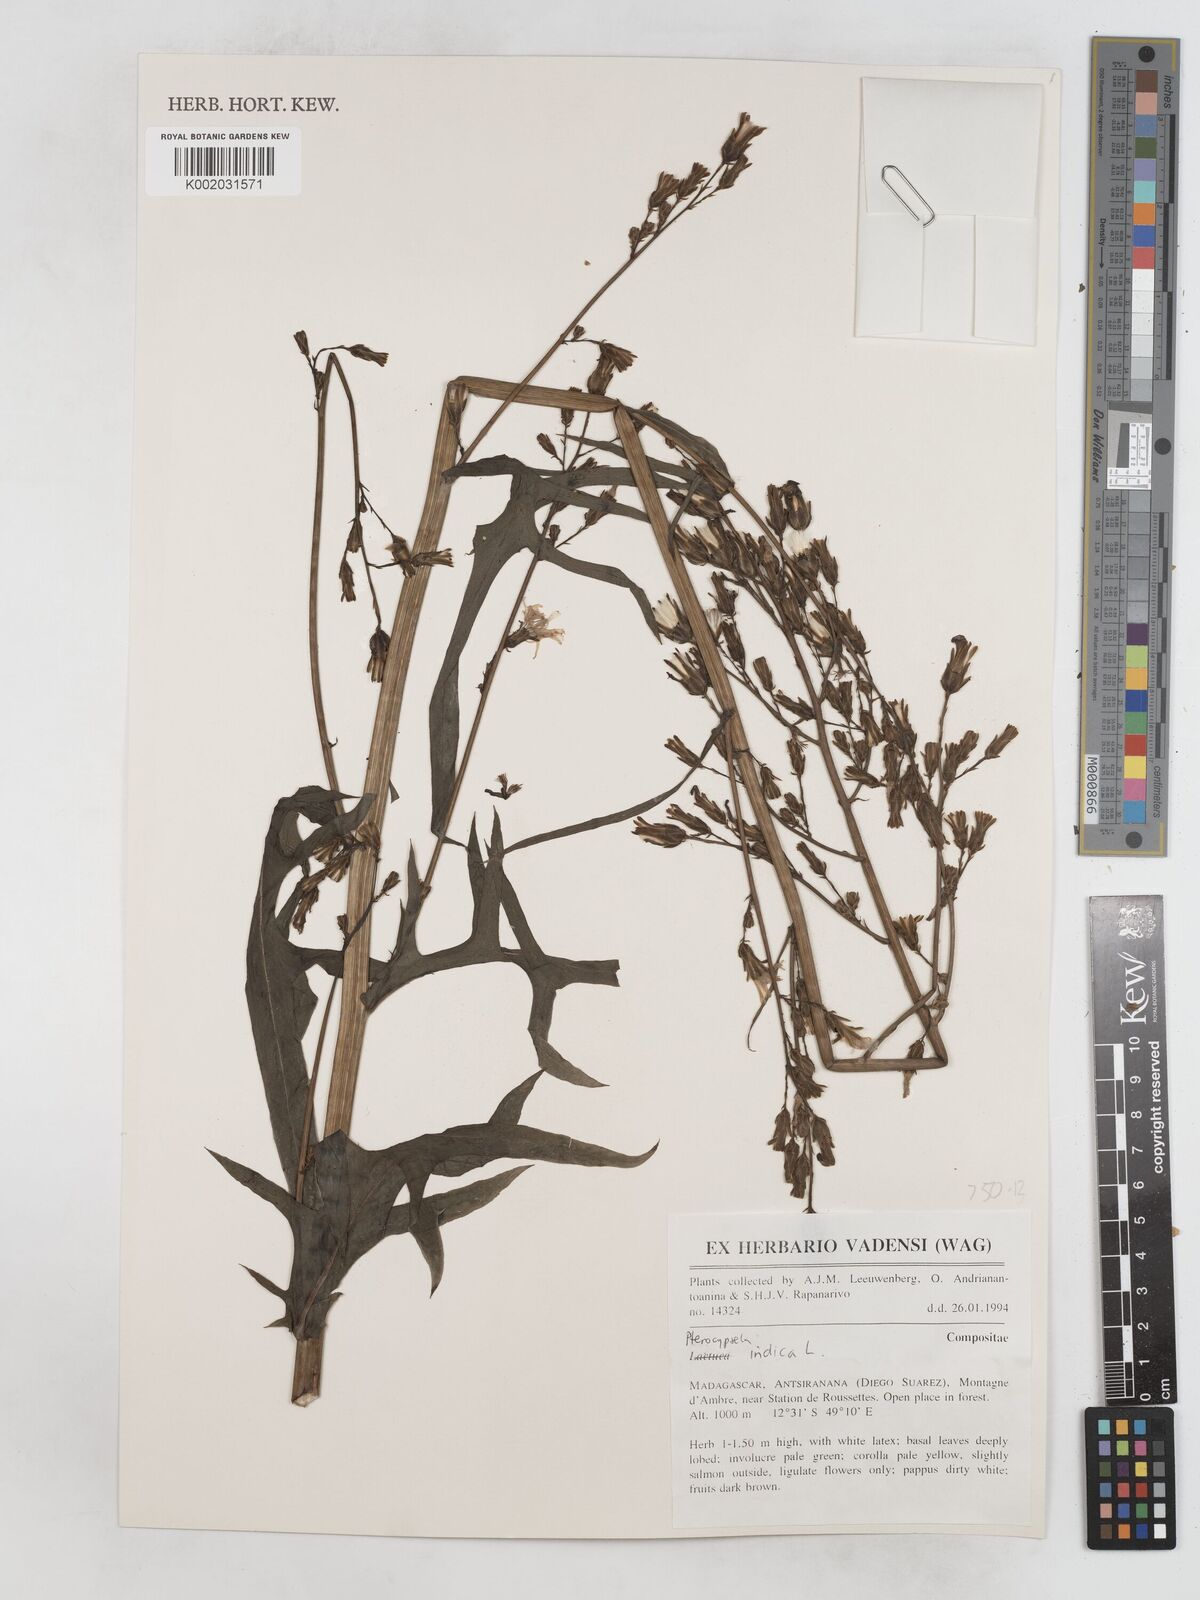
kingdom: Plantae
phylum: Tracheophyta
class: Magnoliopsida
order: Asterales
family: Asteraceae
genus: Lactuca
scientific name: Lactuca
